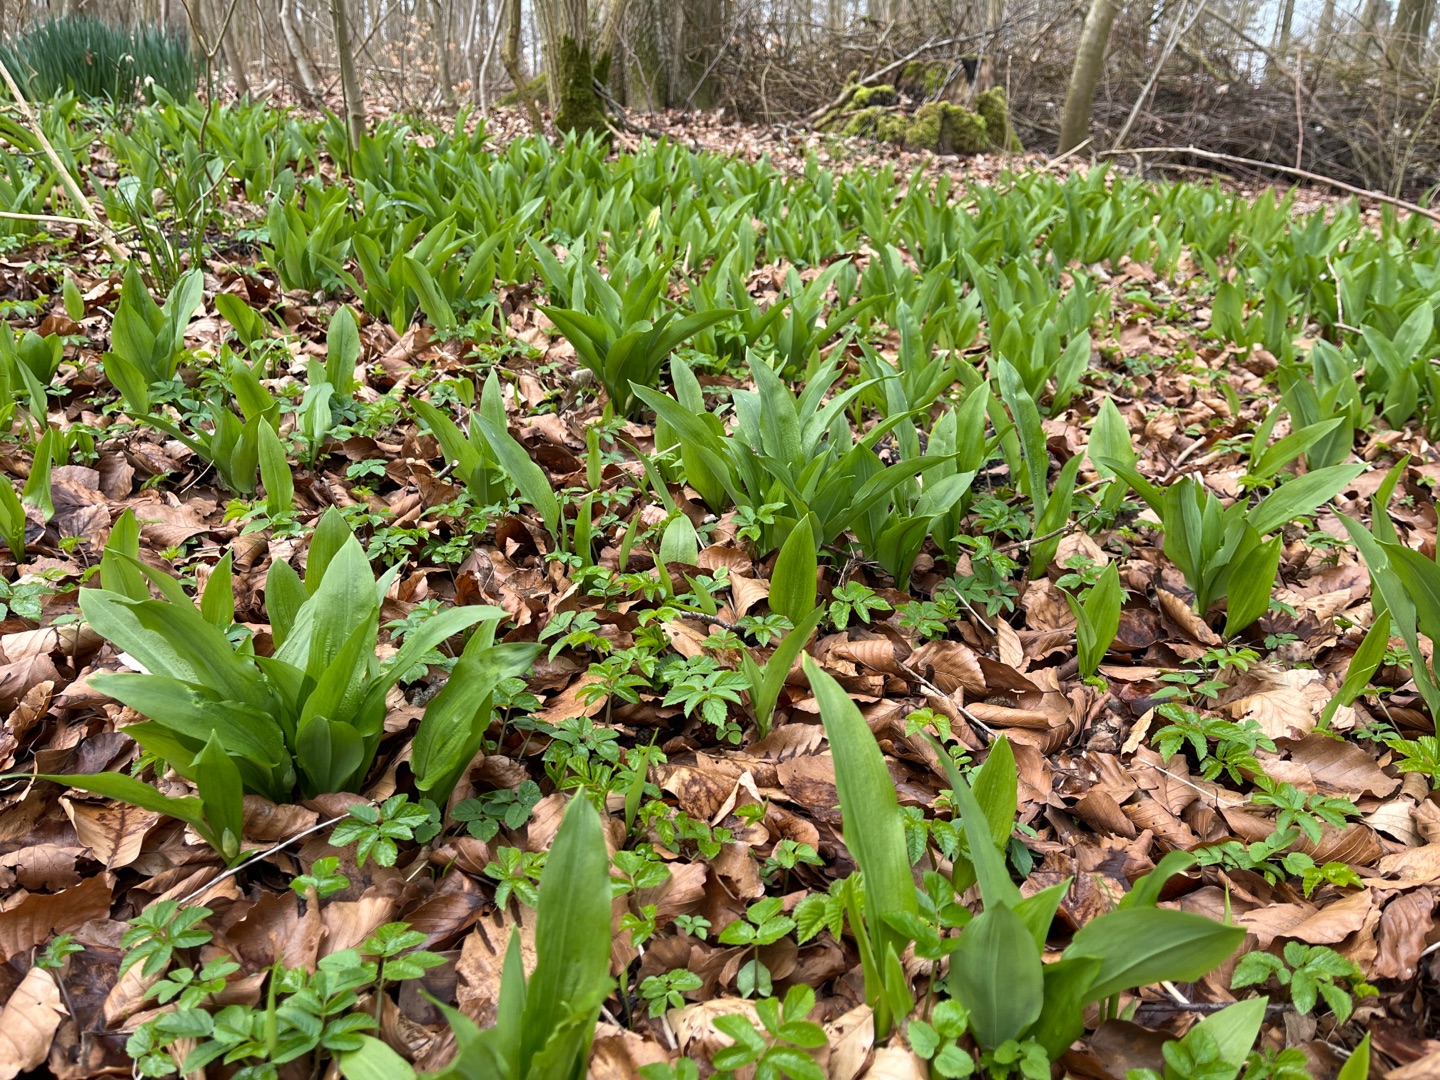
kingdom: Plantae
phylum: Tracheophyta
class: Liliopsida
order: Asparagales
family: Amaryllidaceae
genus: Allium
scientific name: Allium ursinum
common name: Rams-løg
